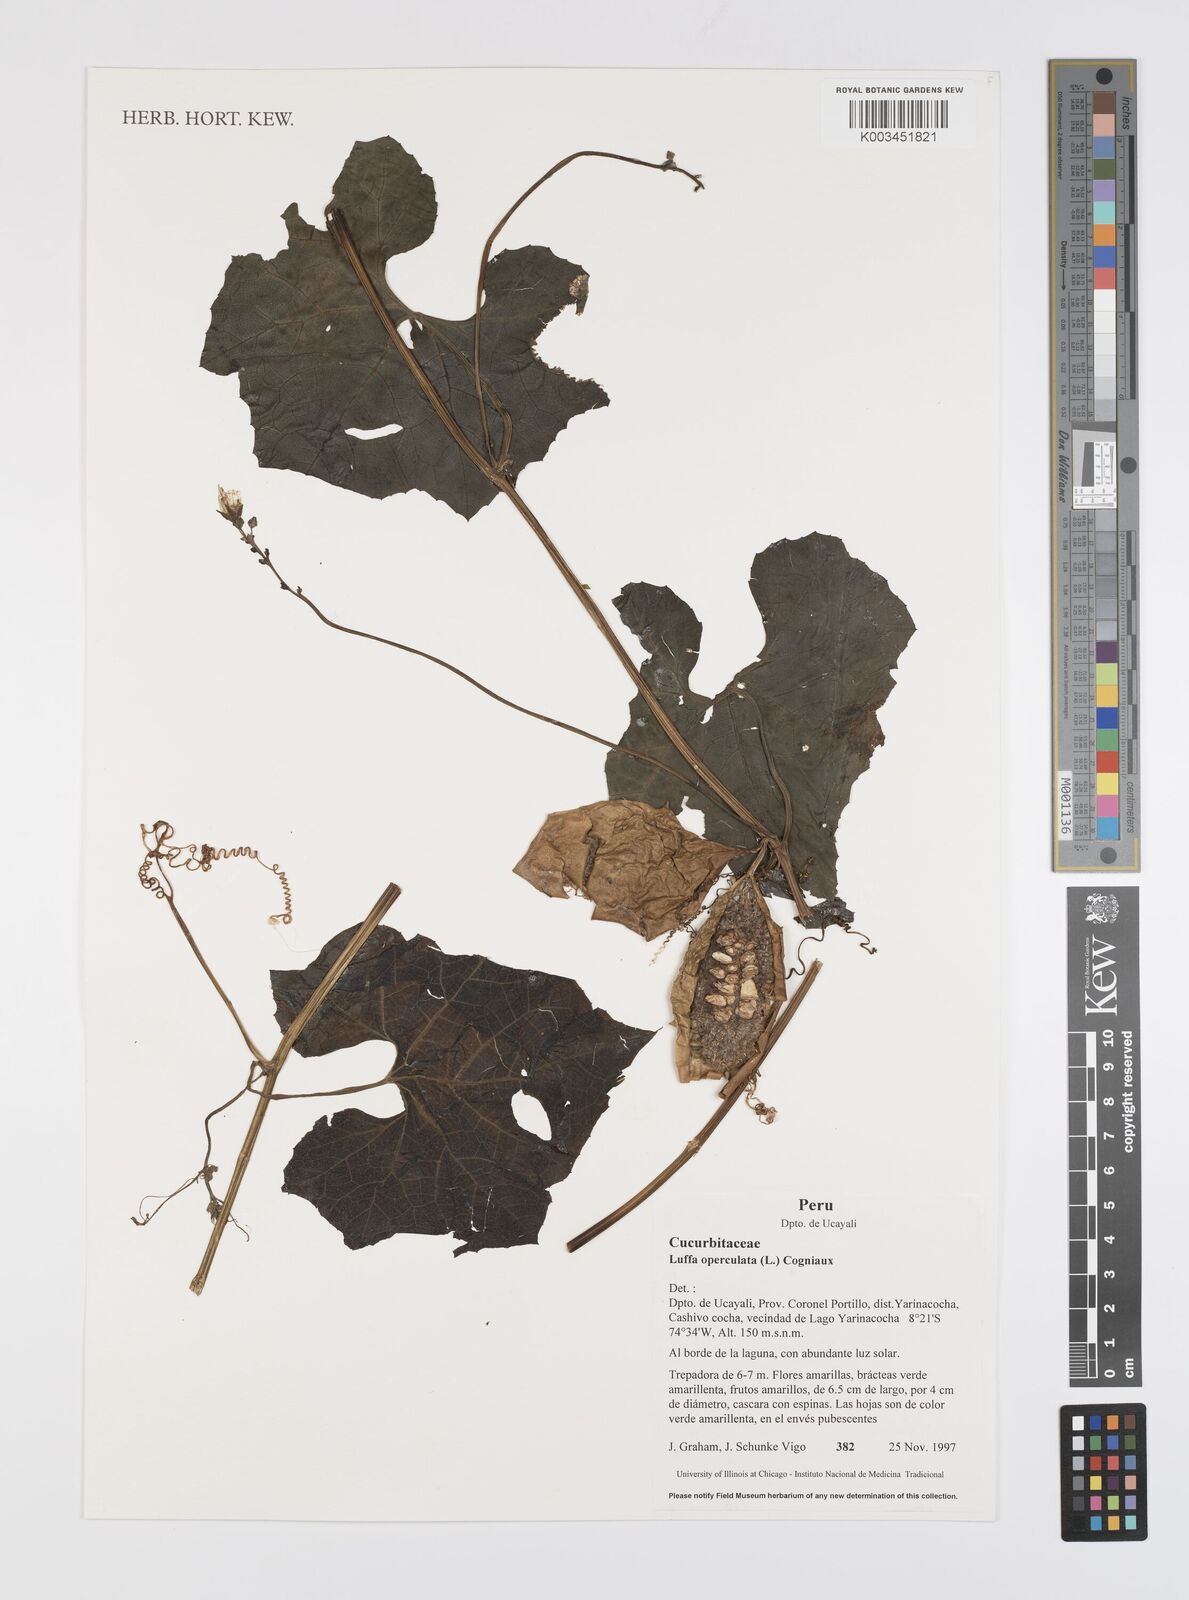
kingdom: Plantae
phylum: Tracheophyta
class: Magnoliopsida
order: Cucurbitales
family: Cucurbitaceae
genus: Luffa
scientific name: Luffa operculata
